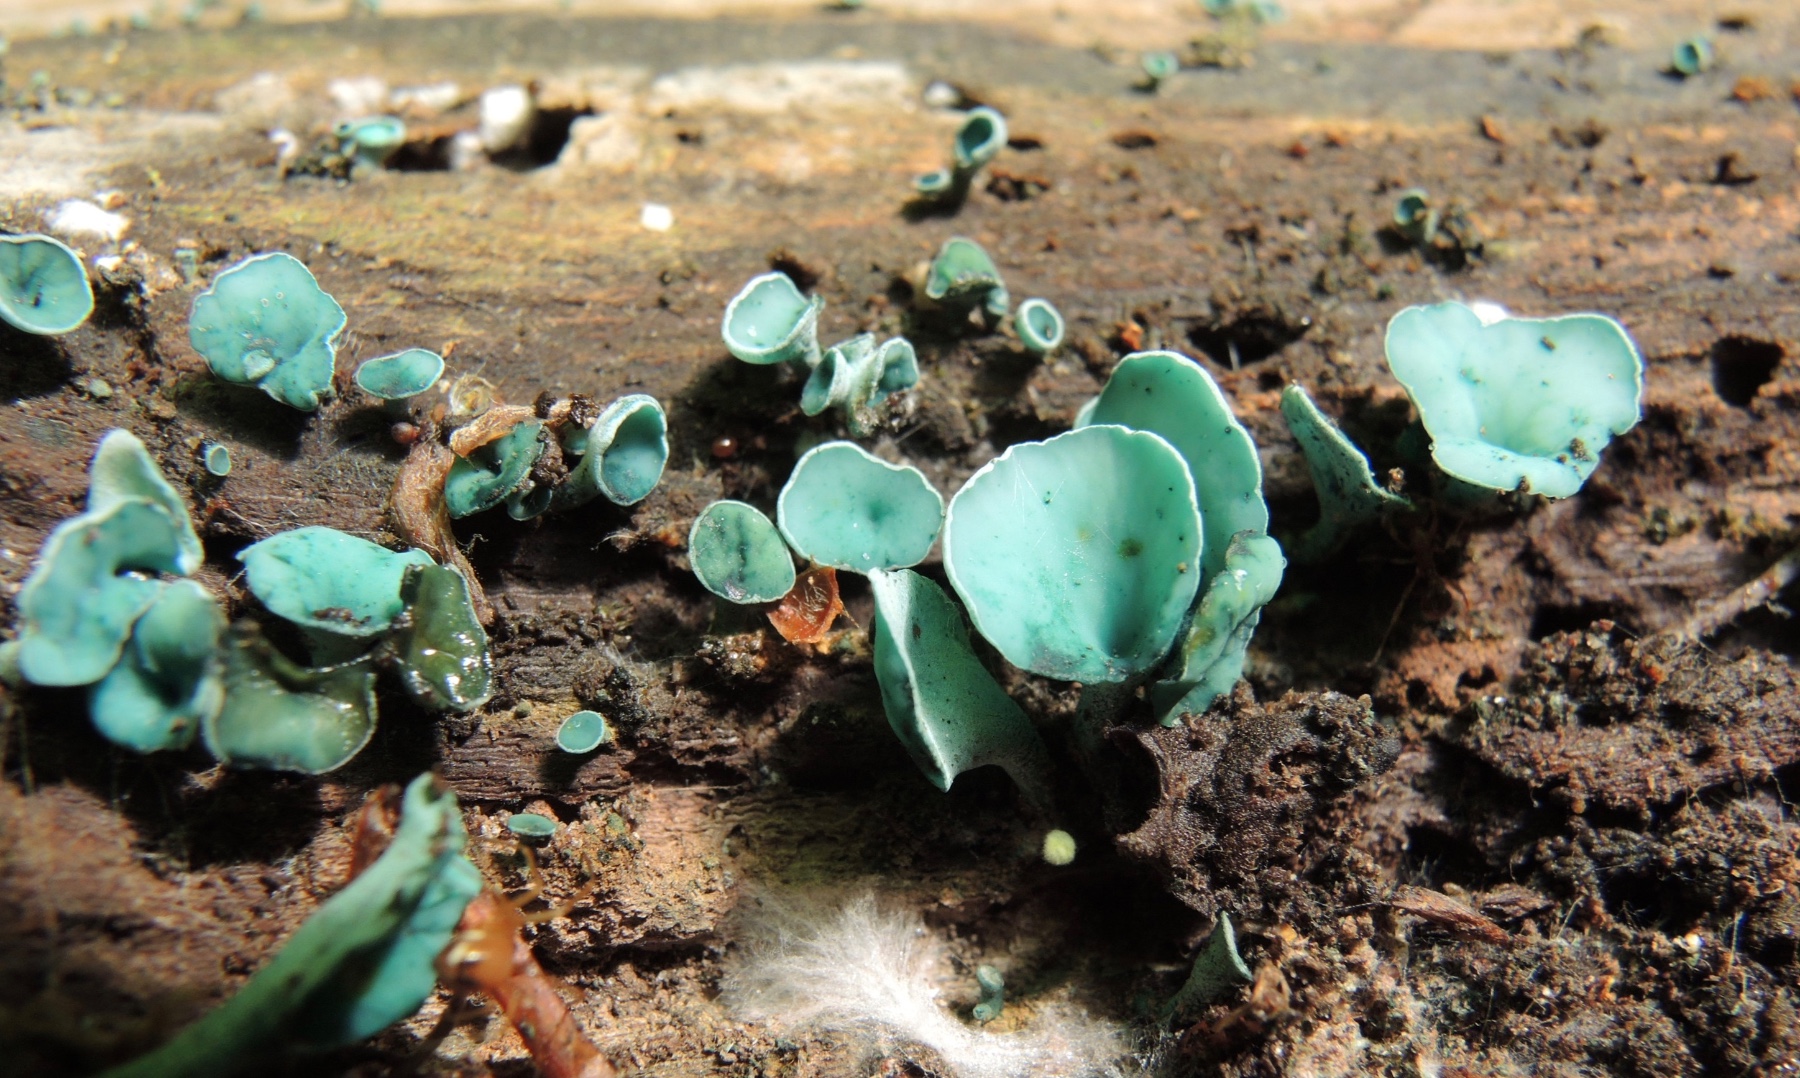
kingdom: Fungi
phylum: Ascomycota
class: Leotiomycetes
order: Helotiales
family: Chlorociboriaceae
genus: Chlorociboria
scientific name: Chlorociboria aeruginascens
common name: almindelig grønskive
